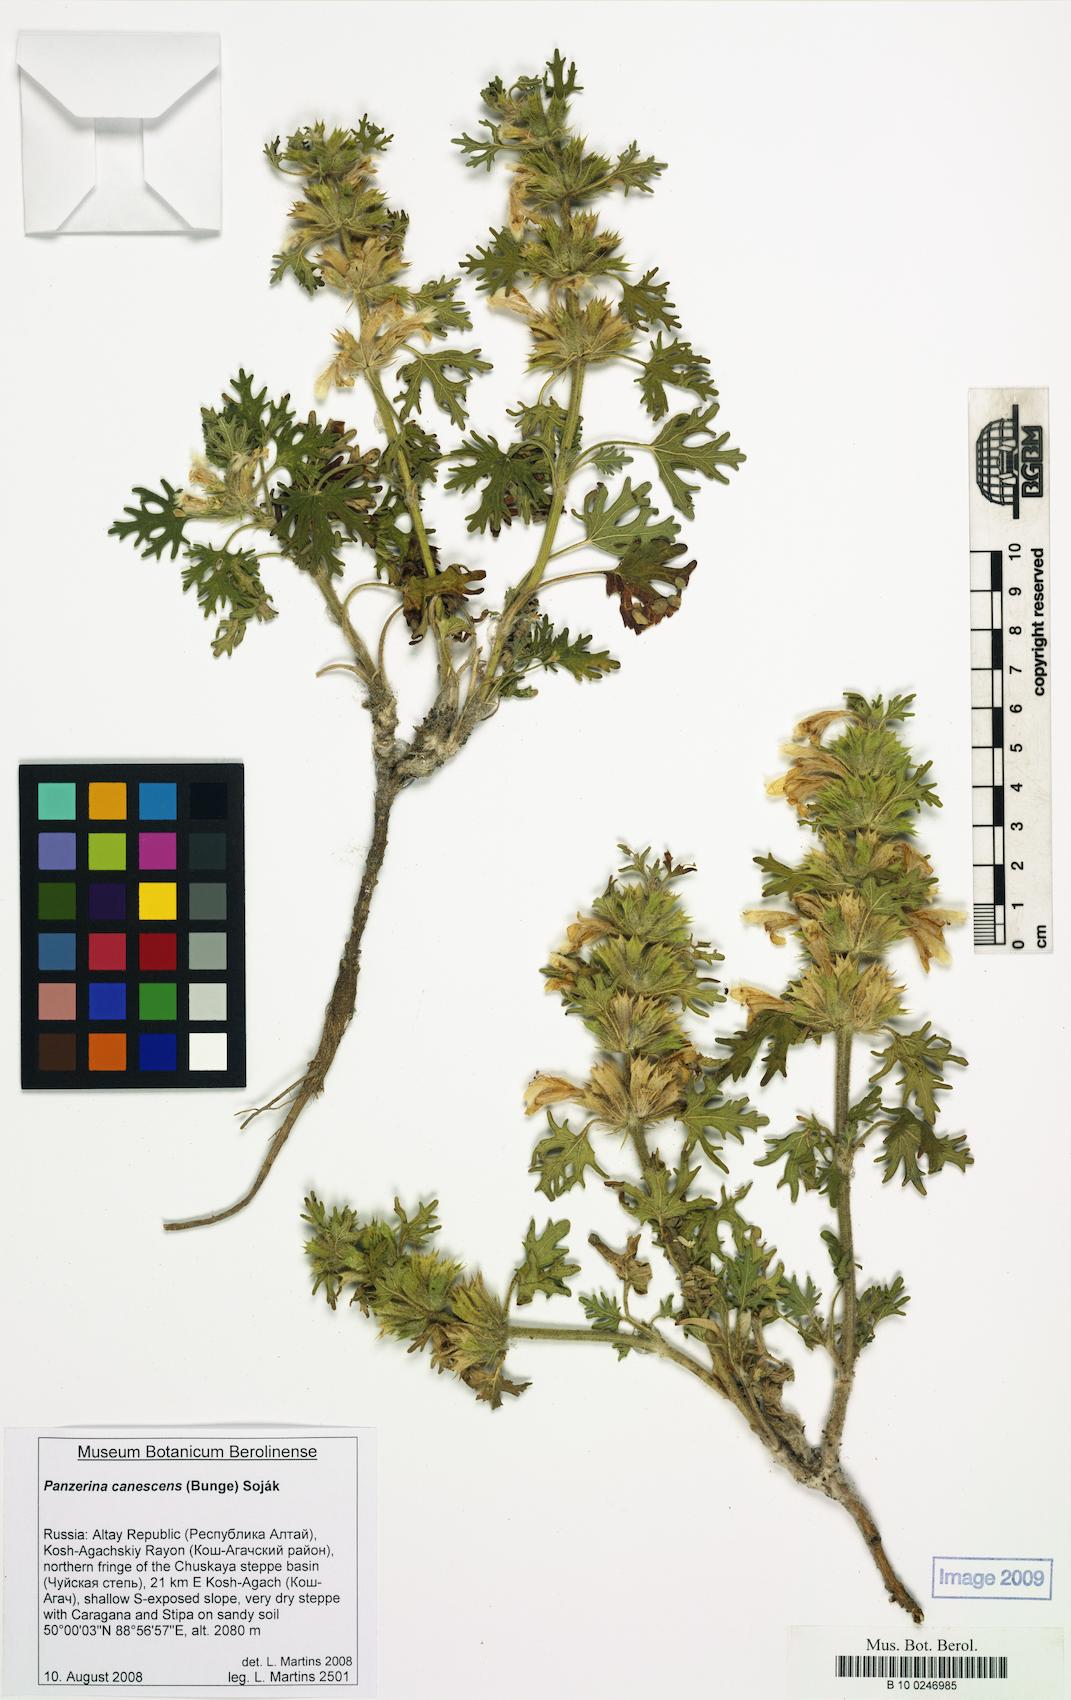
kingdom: Plantae
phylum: Tracheophyta
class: Magnoliopsida
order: Lamiales
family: Lamiaceae
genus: Panzerina
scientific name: Panzerina canescens
